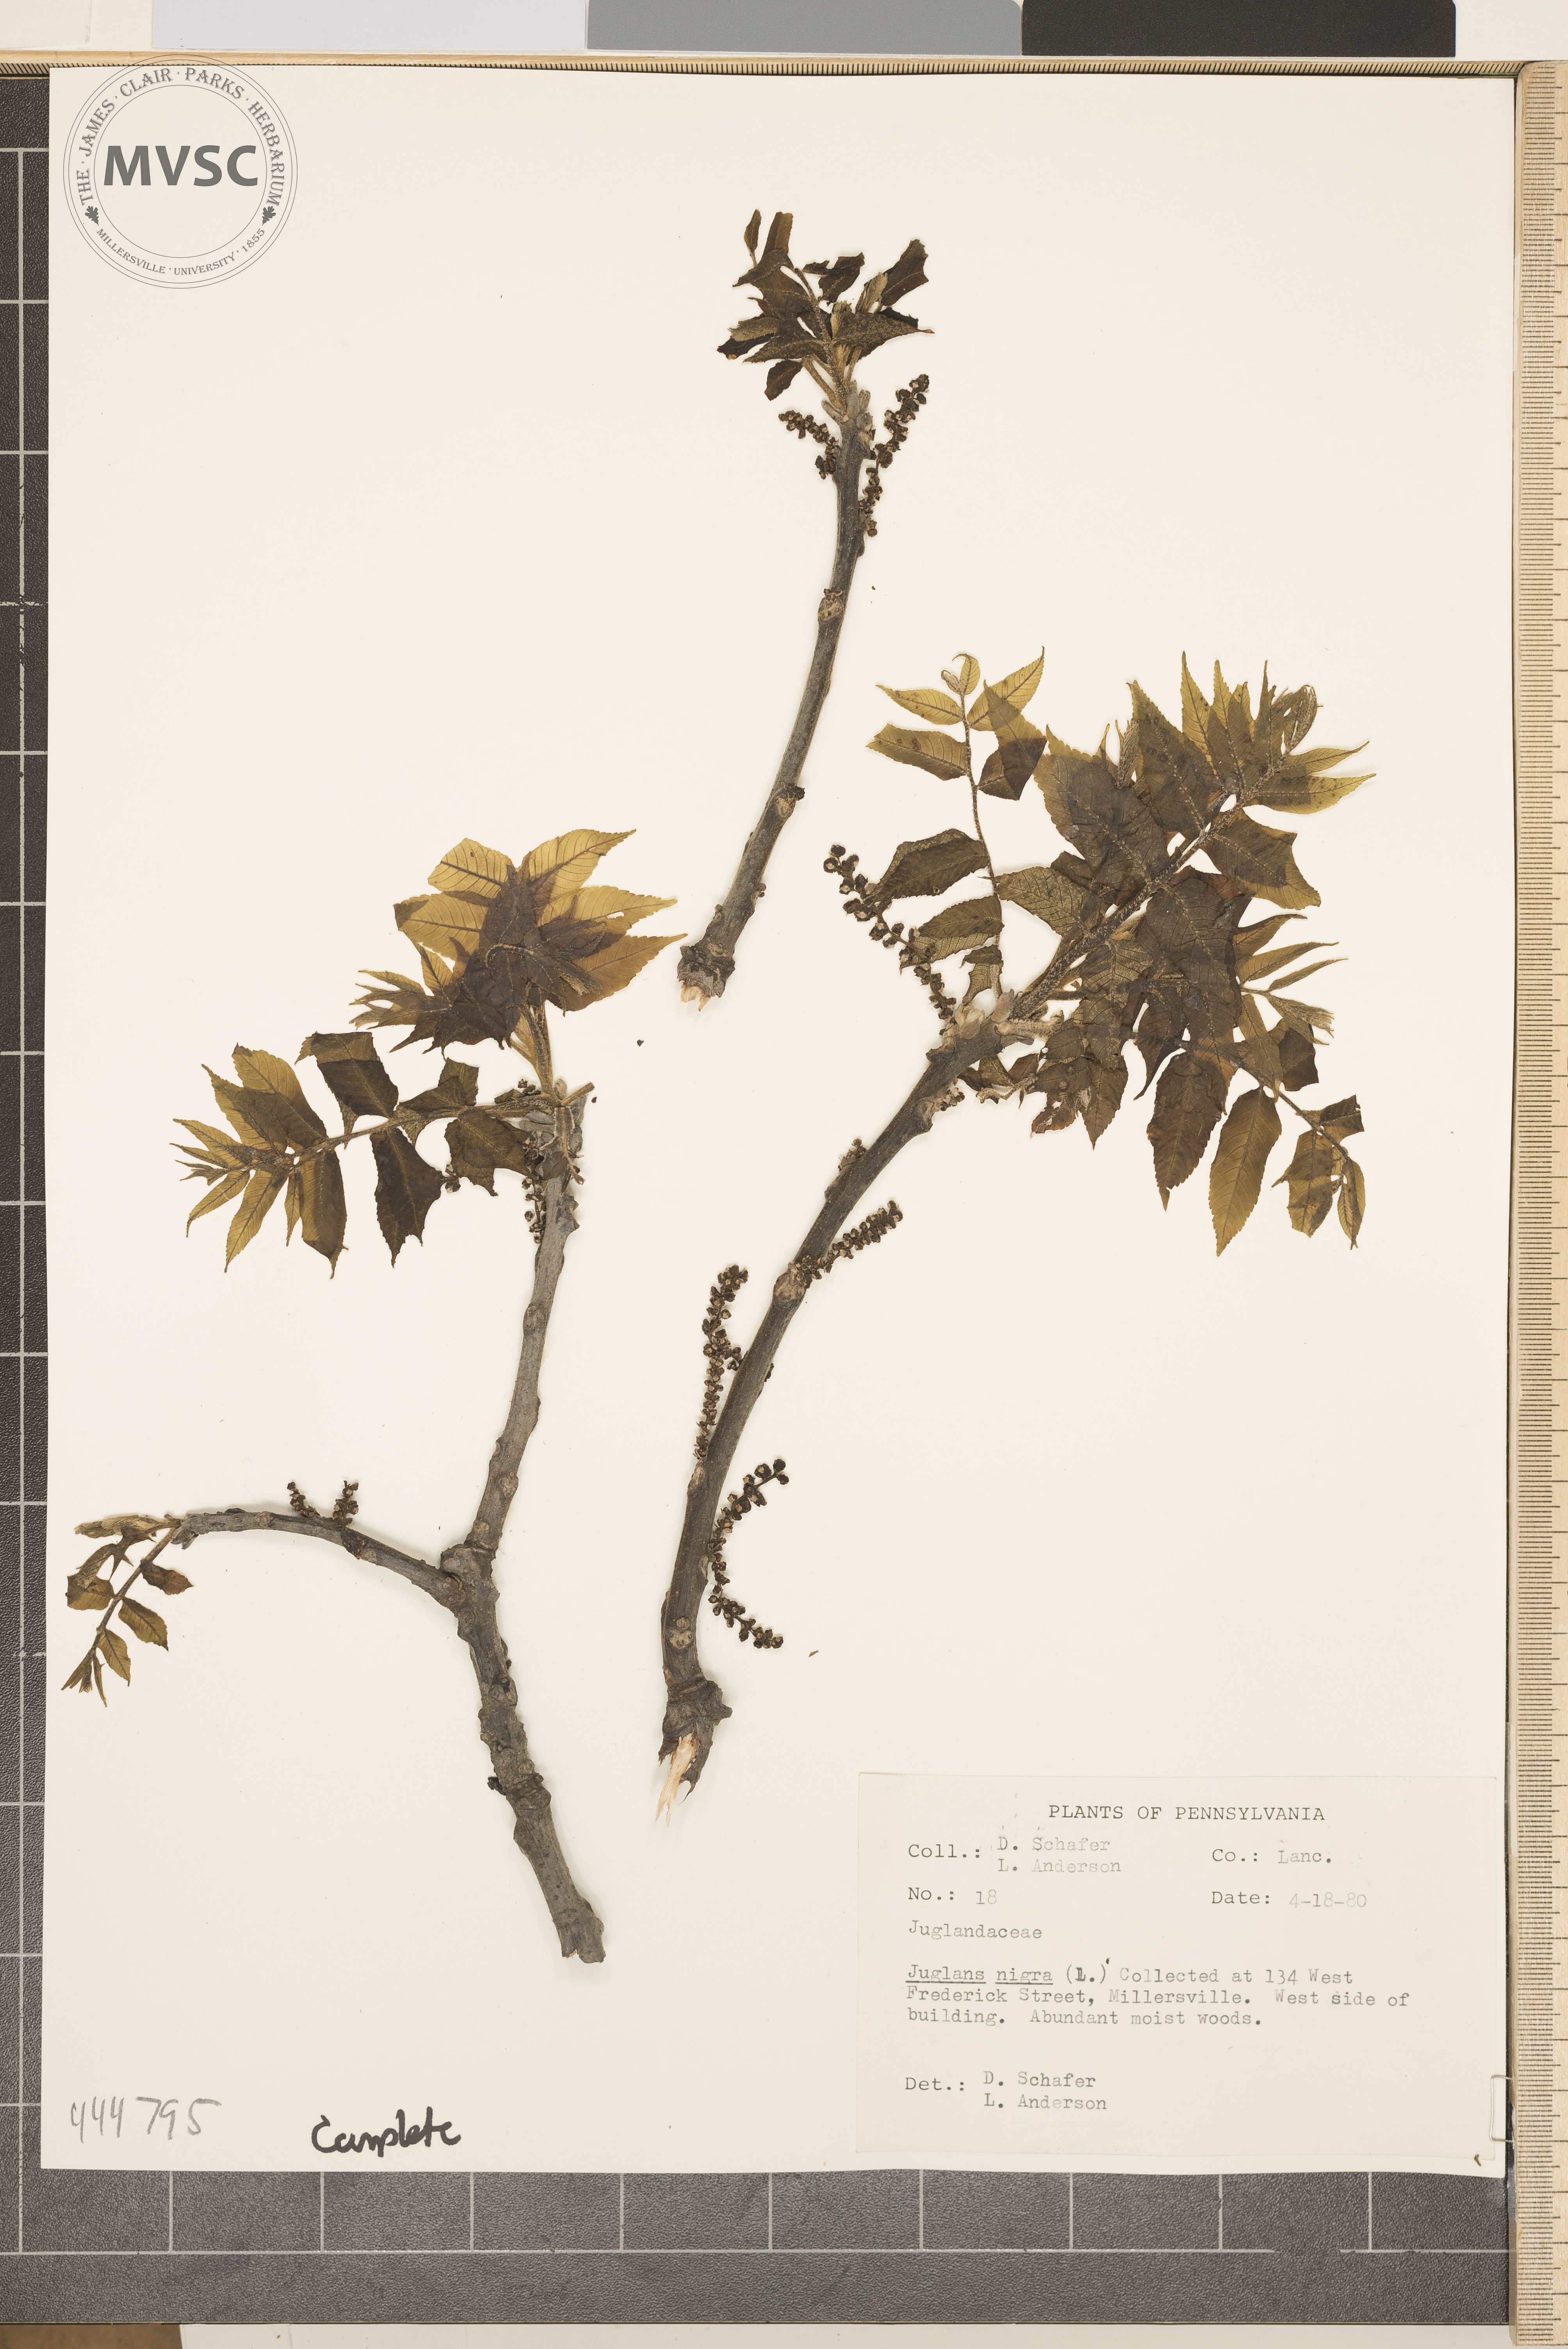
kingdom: Plantae
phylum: Tracheophyta
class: Magnoliopsida
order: Fagales
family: Juglandaceae
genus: Juglans
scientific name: Juglans nigra
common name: Black walnut
